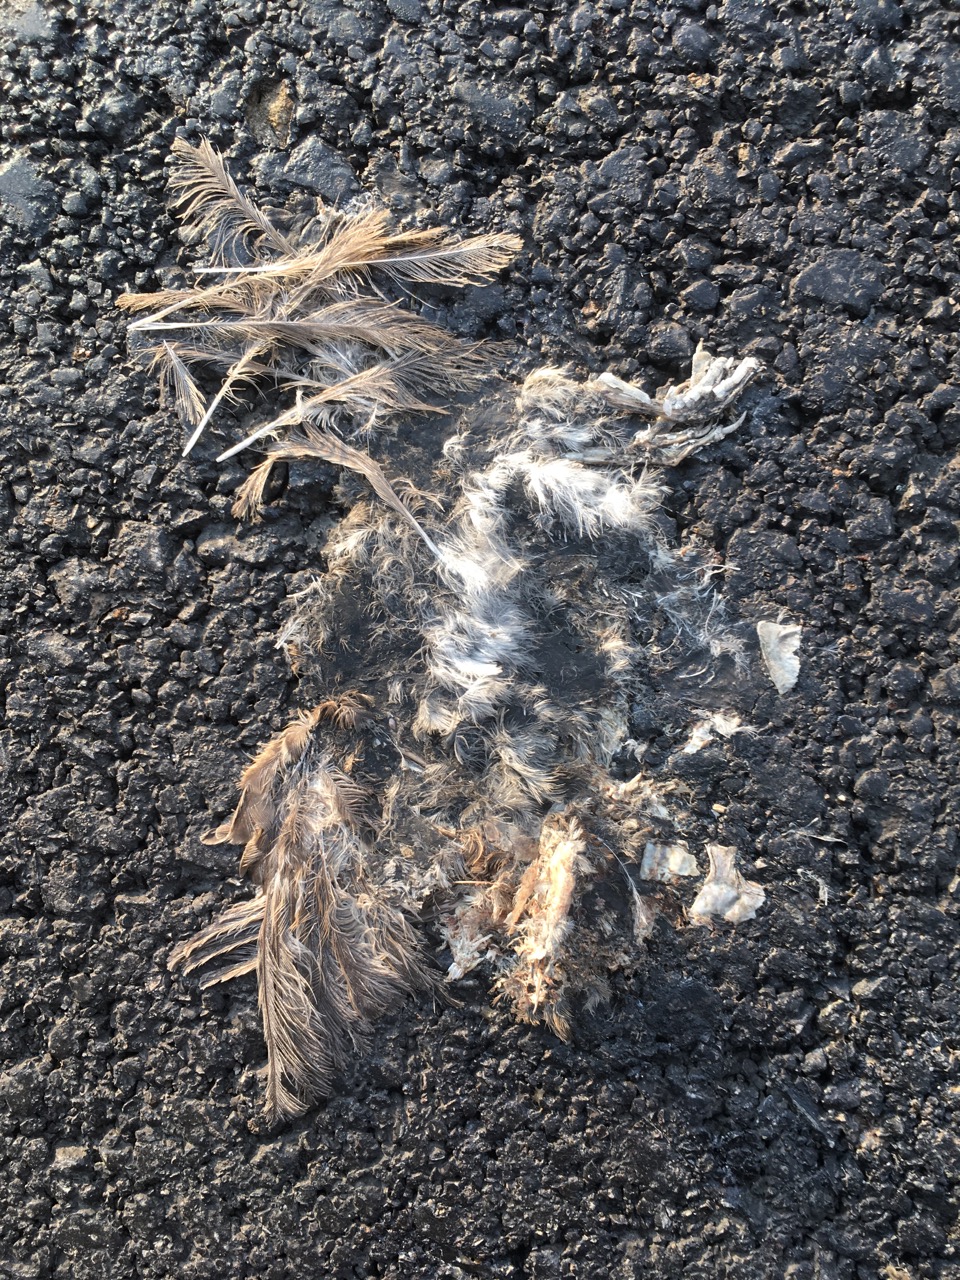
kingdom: Animalia
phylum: Chordata
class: Aves
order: Passeriformes
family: Passeridae
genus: Passer
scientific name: Passer
